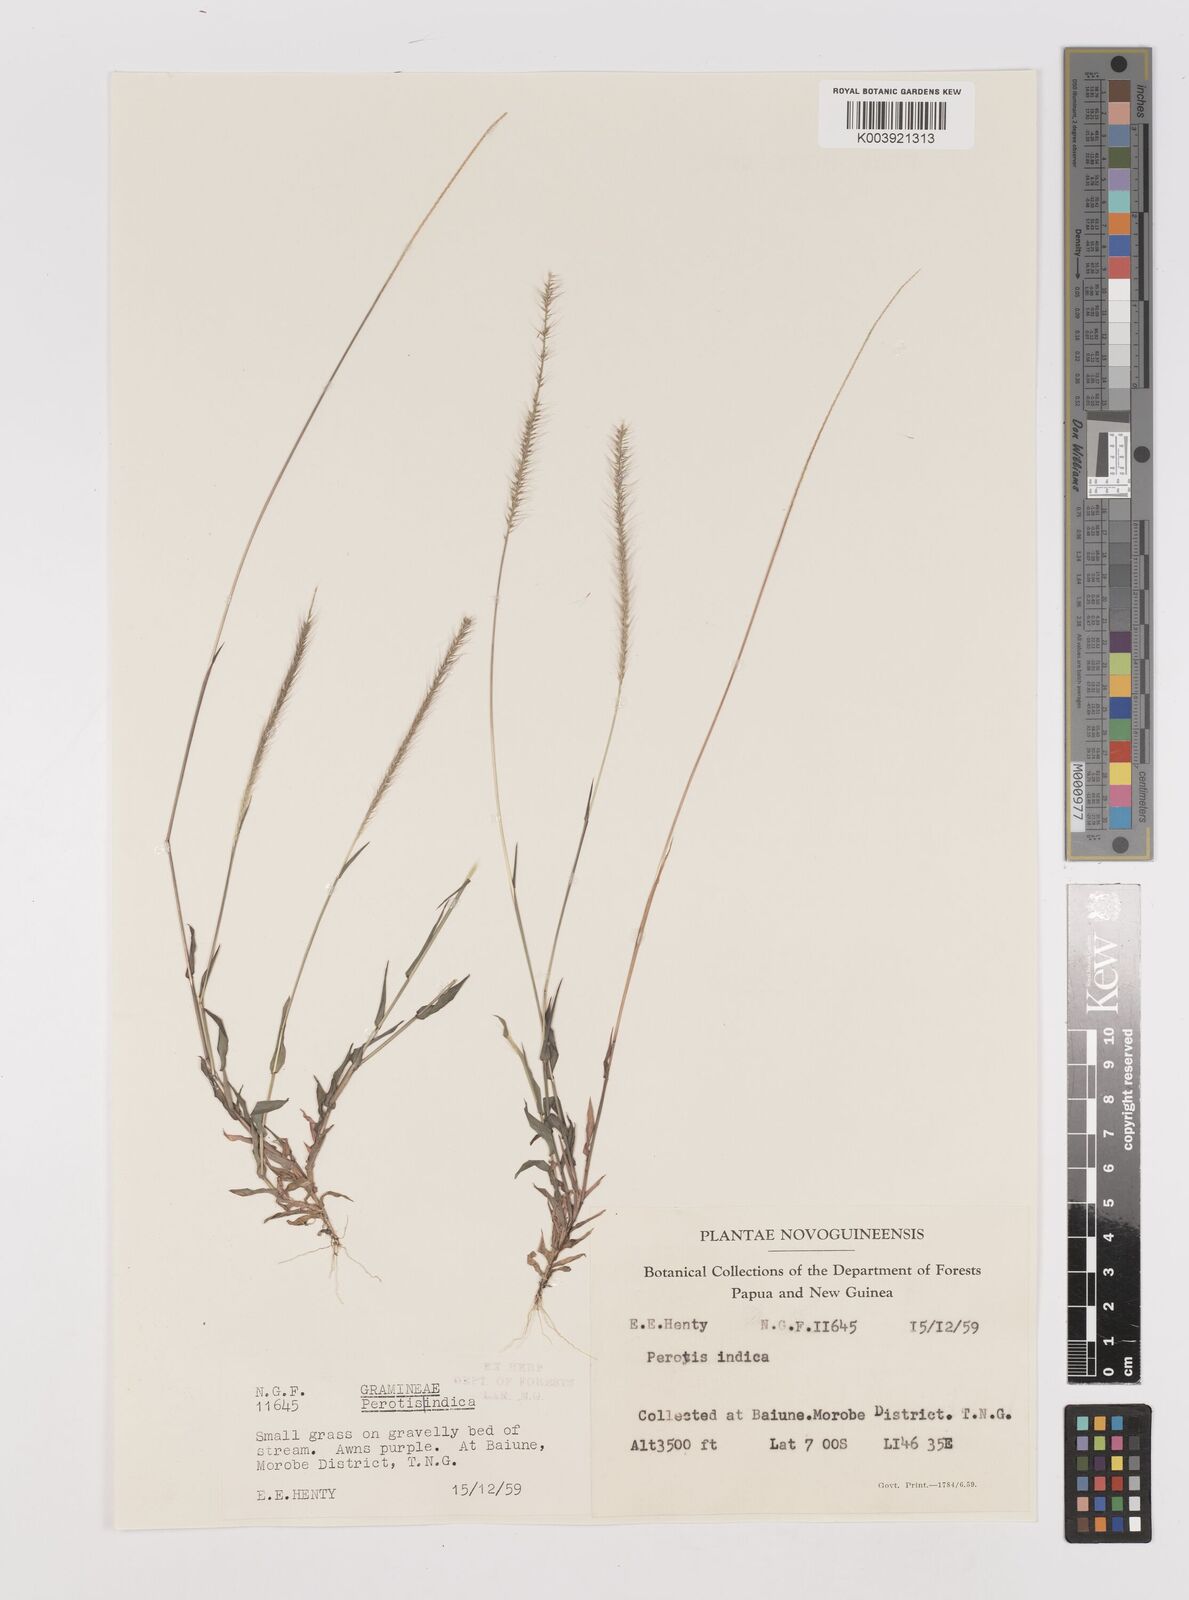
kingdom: Plantae
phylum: Tracheophyta
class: Liliopsida
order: Poales
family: Poaceae
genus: Perotis
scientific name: Perotis indica
